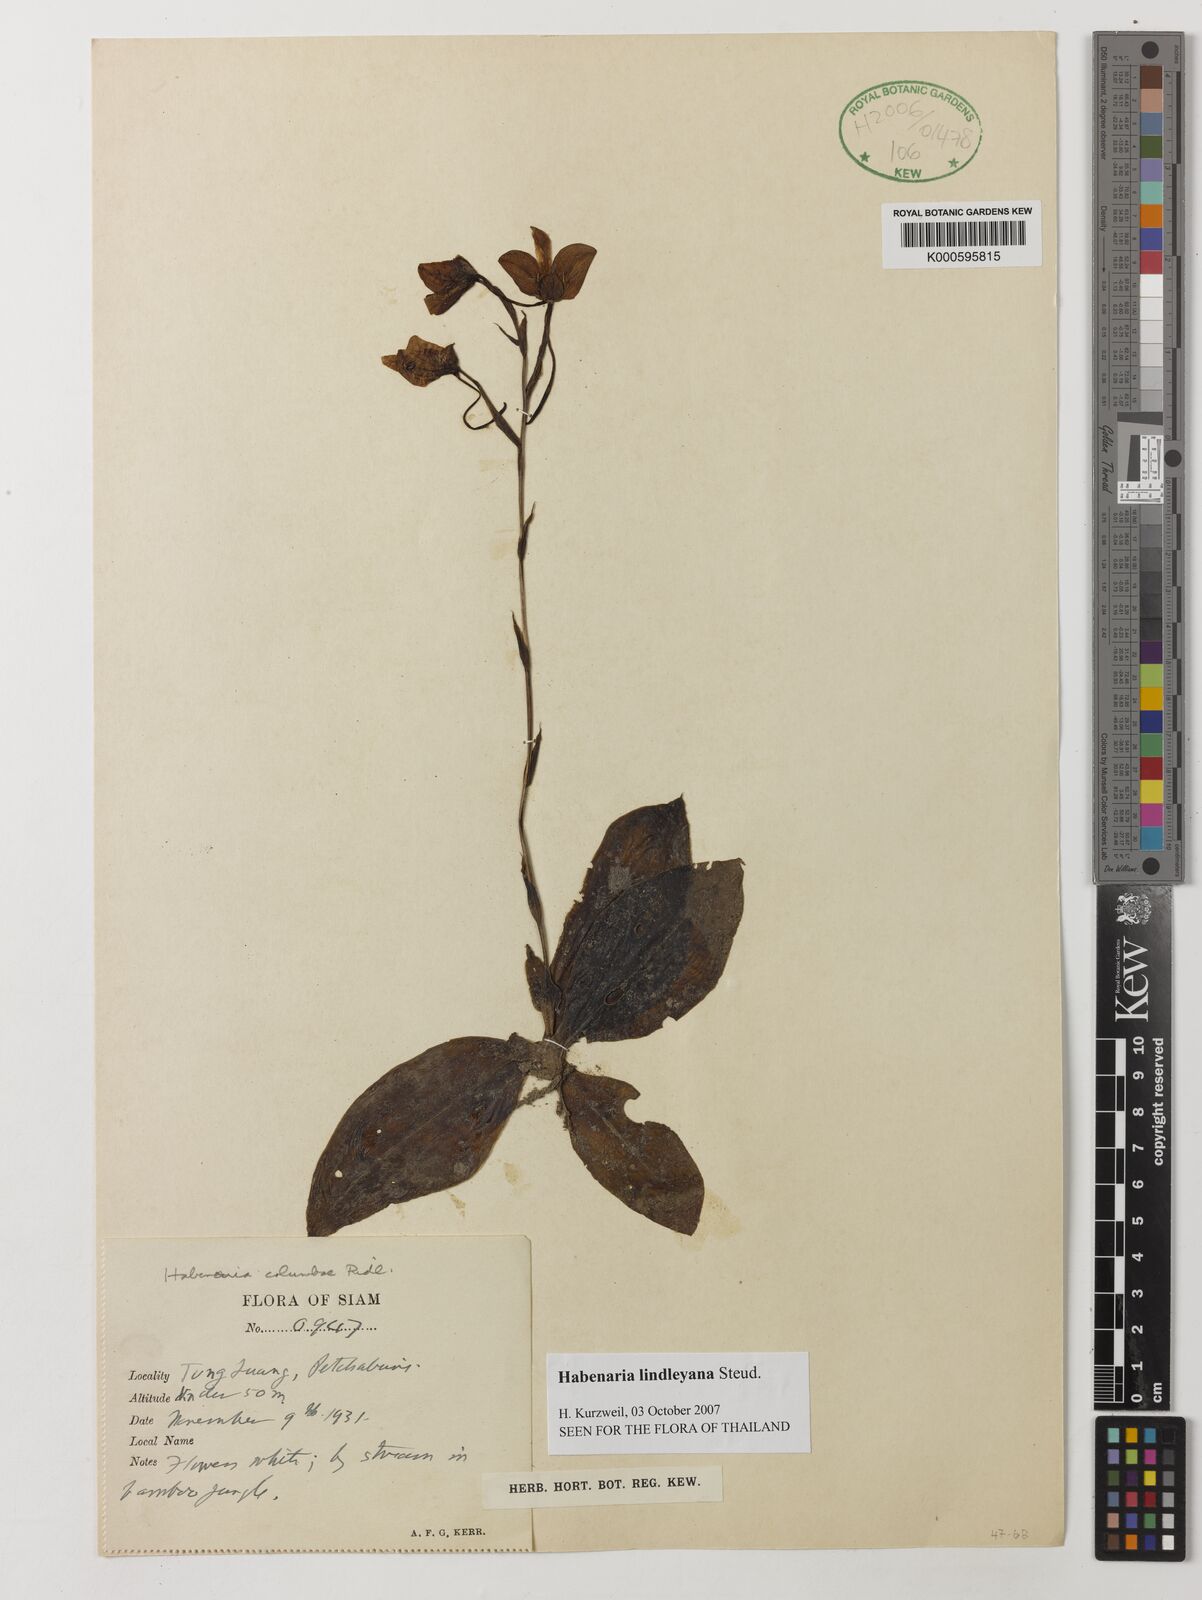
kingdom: Plantae
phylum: Tracheophyta
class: Liliopsida
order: Asparagales
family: Orchidaceae
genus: Habenaria
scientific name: Habenaria lindleyana
